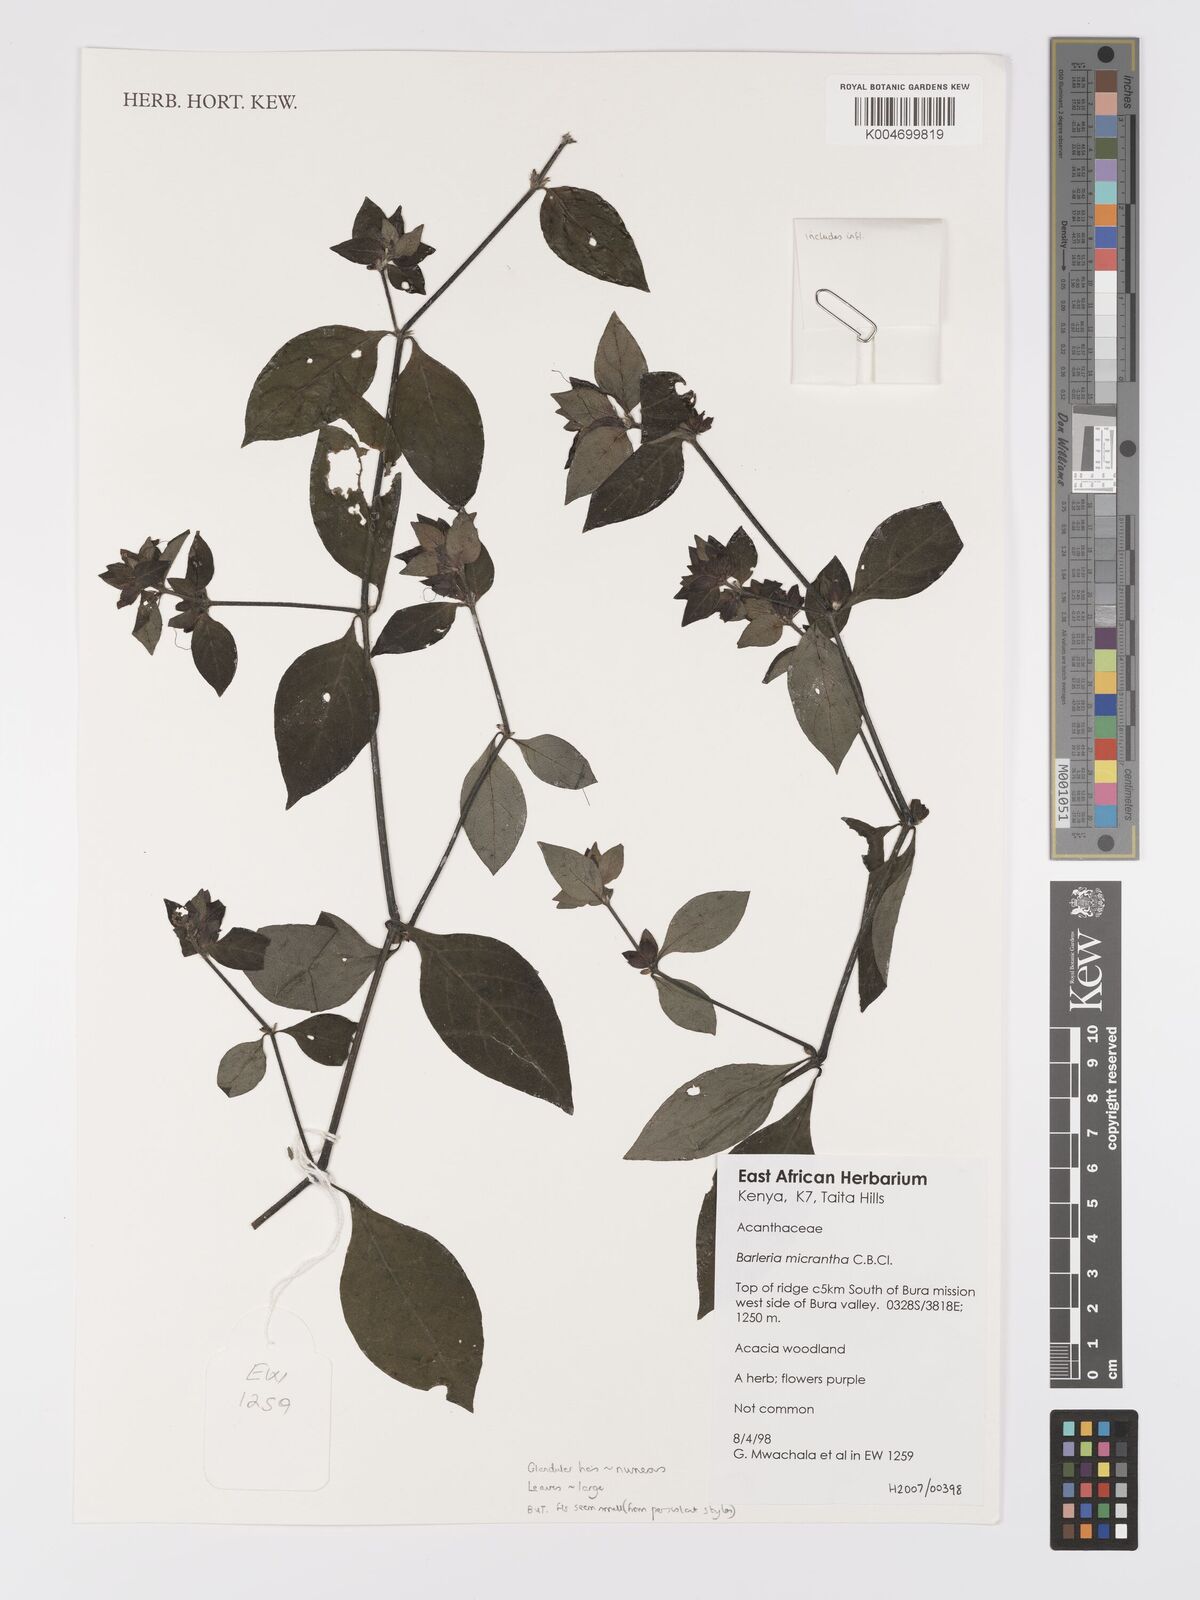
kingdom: Plantae
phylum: Tracheophyta
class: Magnoliopsida
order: Lamiales
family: Acanthaceae
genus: Barleria
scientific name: Barleria ventricosa
